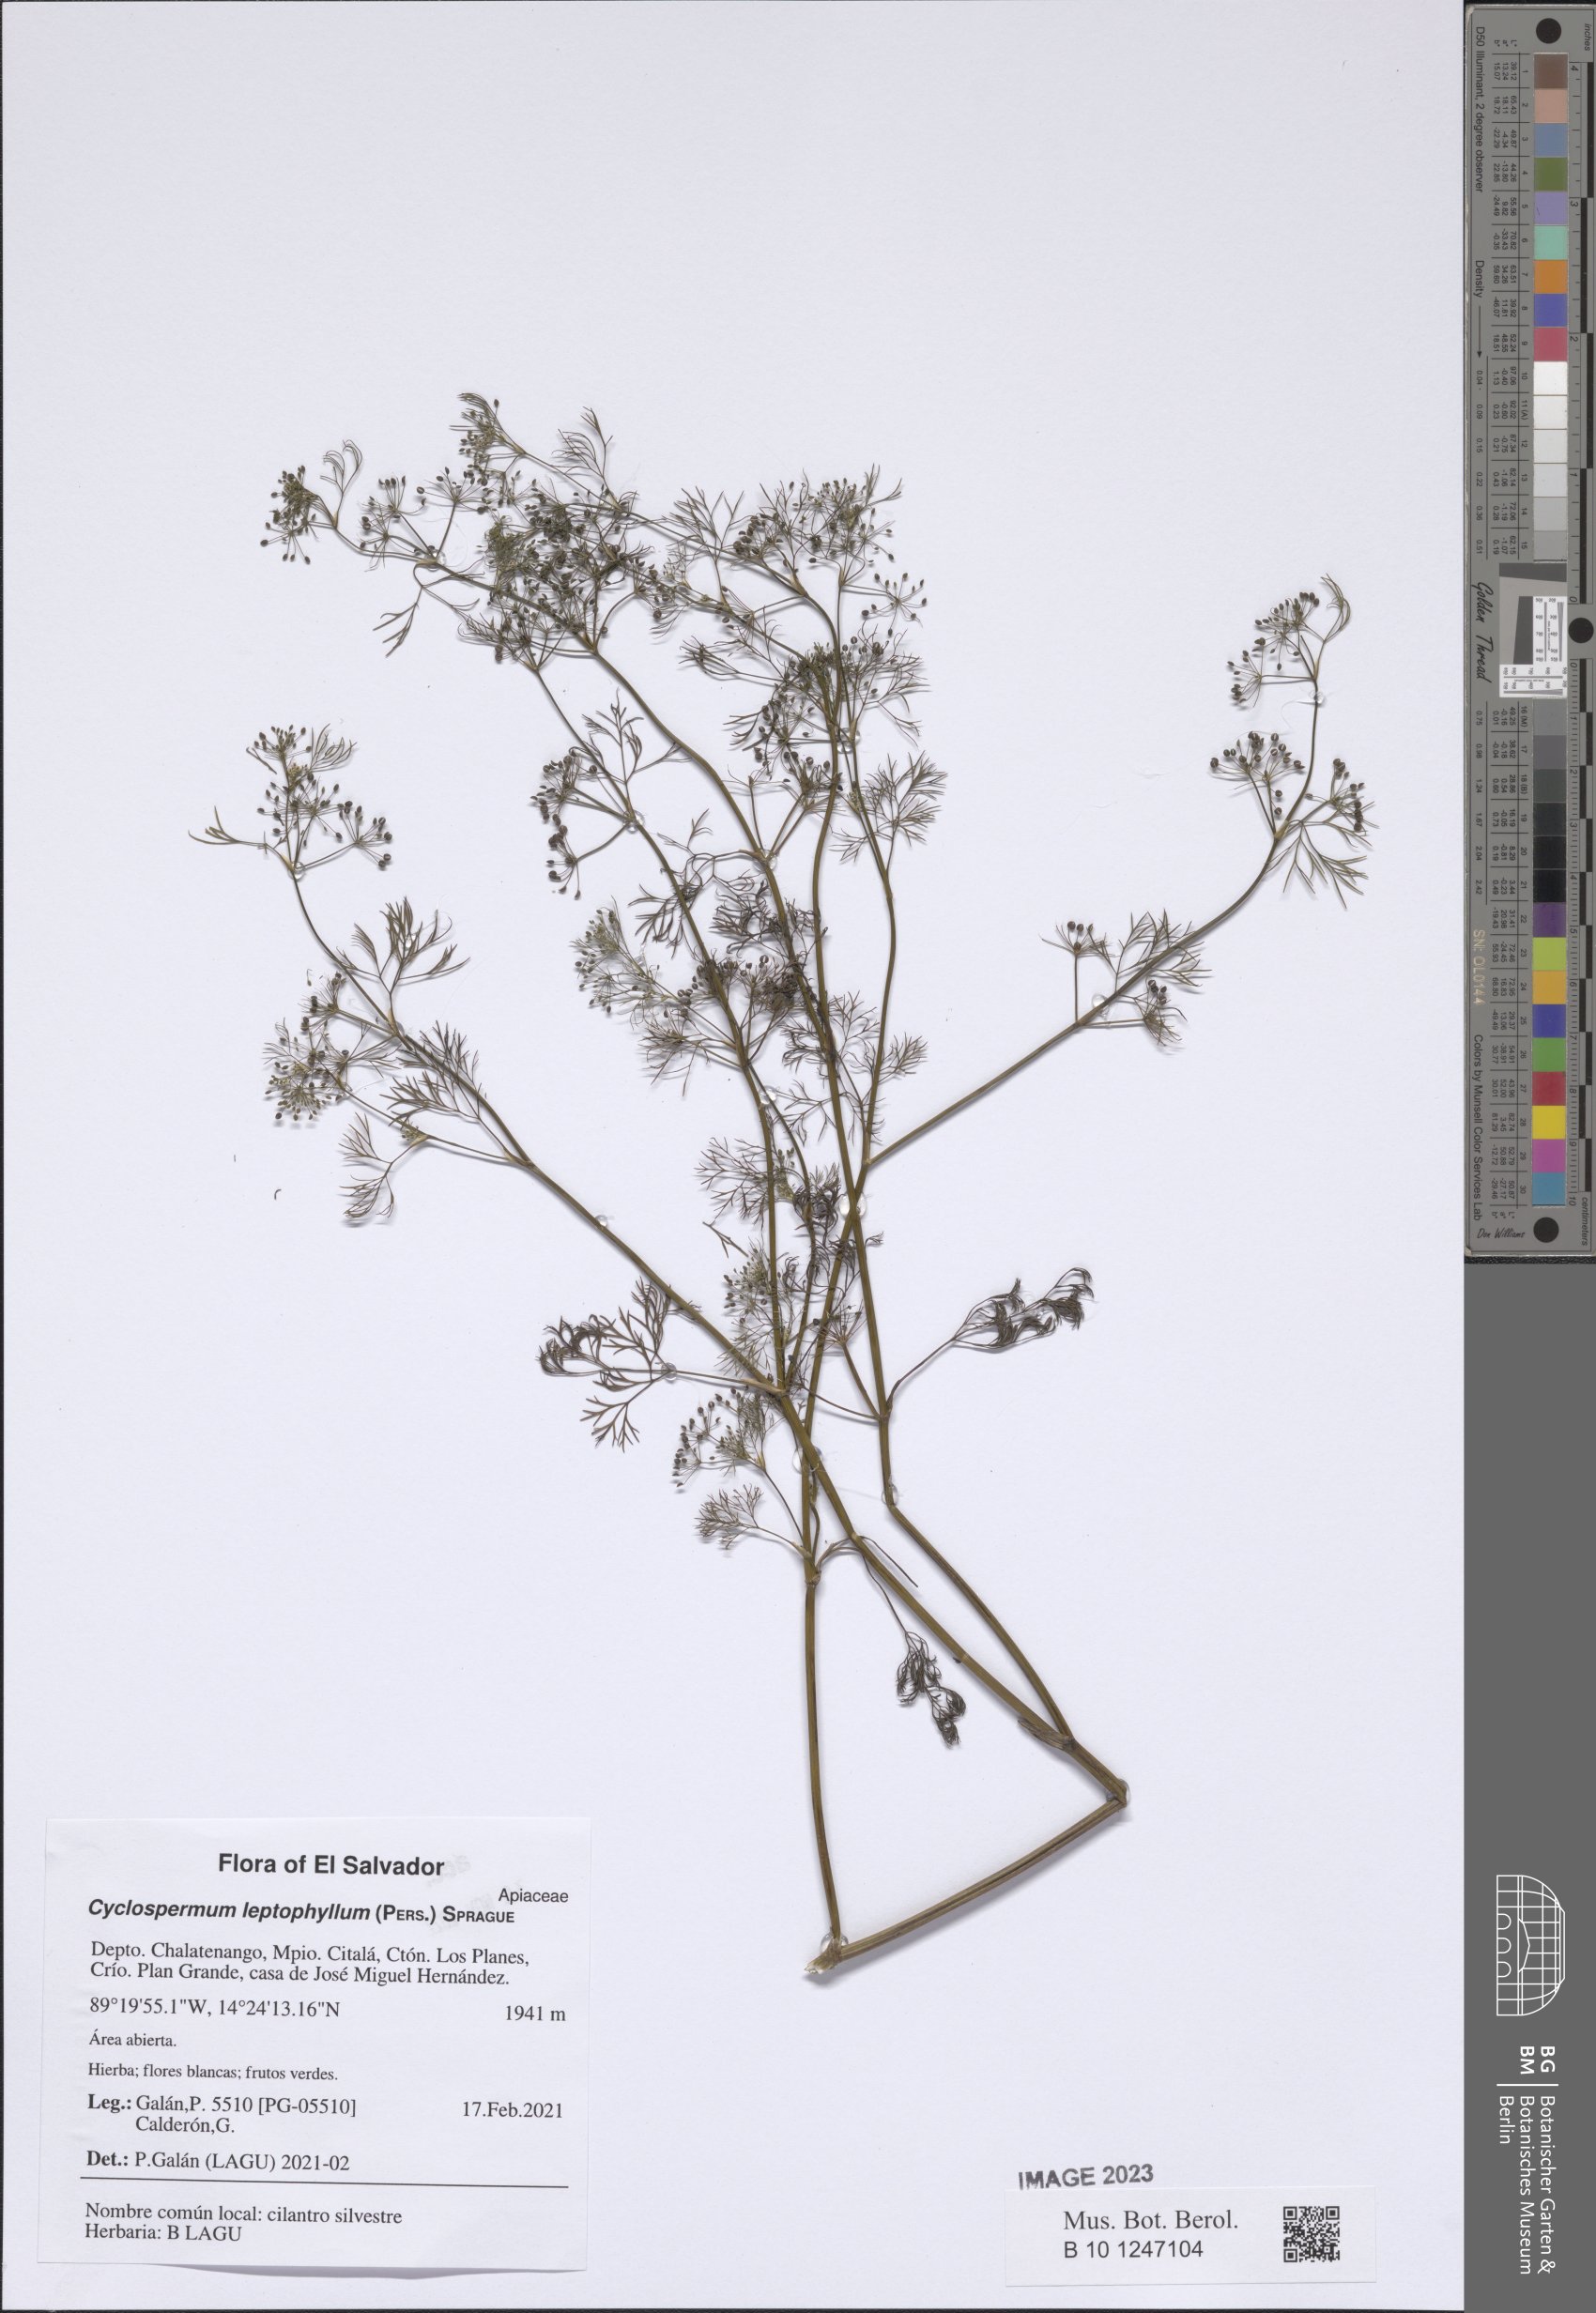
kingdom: Plantae
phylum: Tracheophyta
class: Magnoliopsida
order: Apiales
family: Apiaceae
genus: Cyclospermum
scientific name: Cyclospermum leptophyllum
